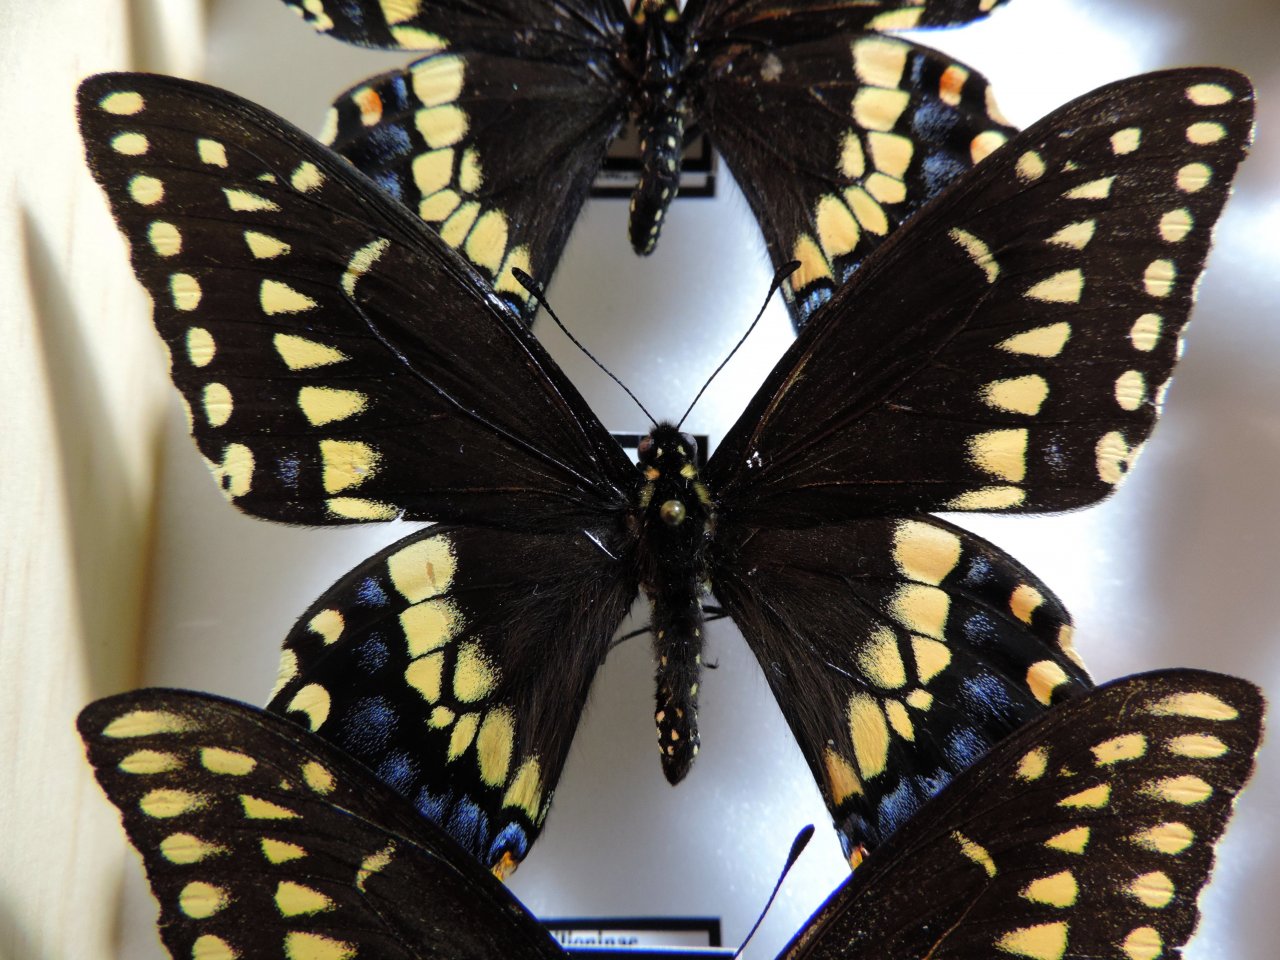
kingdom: Animalia
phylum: Arthropoda
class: Insecta
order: Lepidoptera
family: Papilionidae
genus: Papilio
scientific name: Papilio polyxenes
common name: Black Swallowtail
